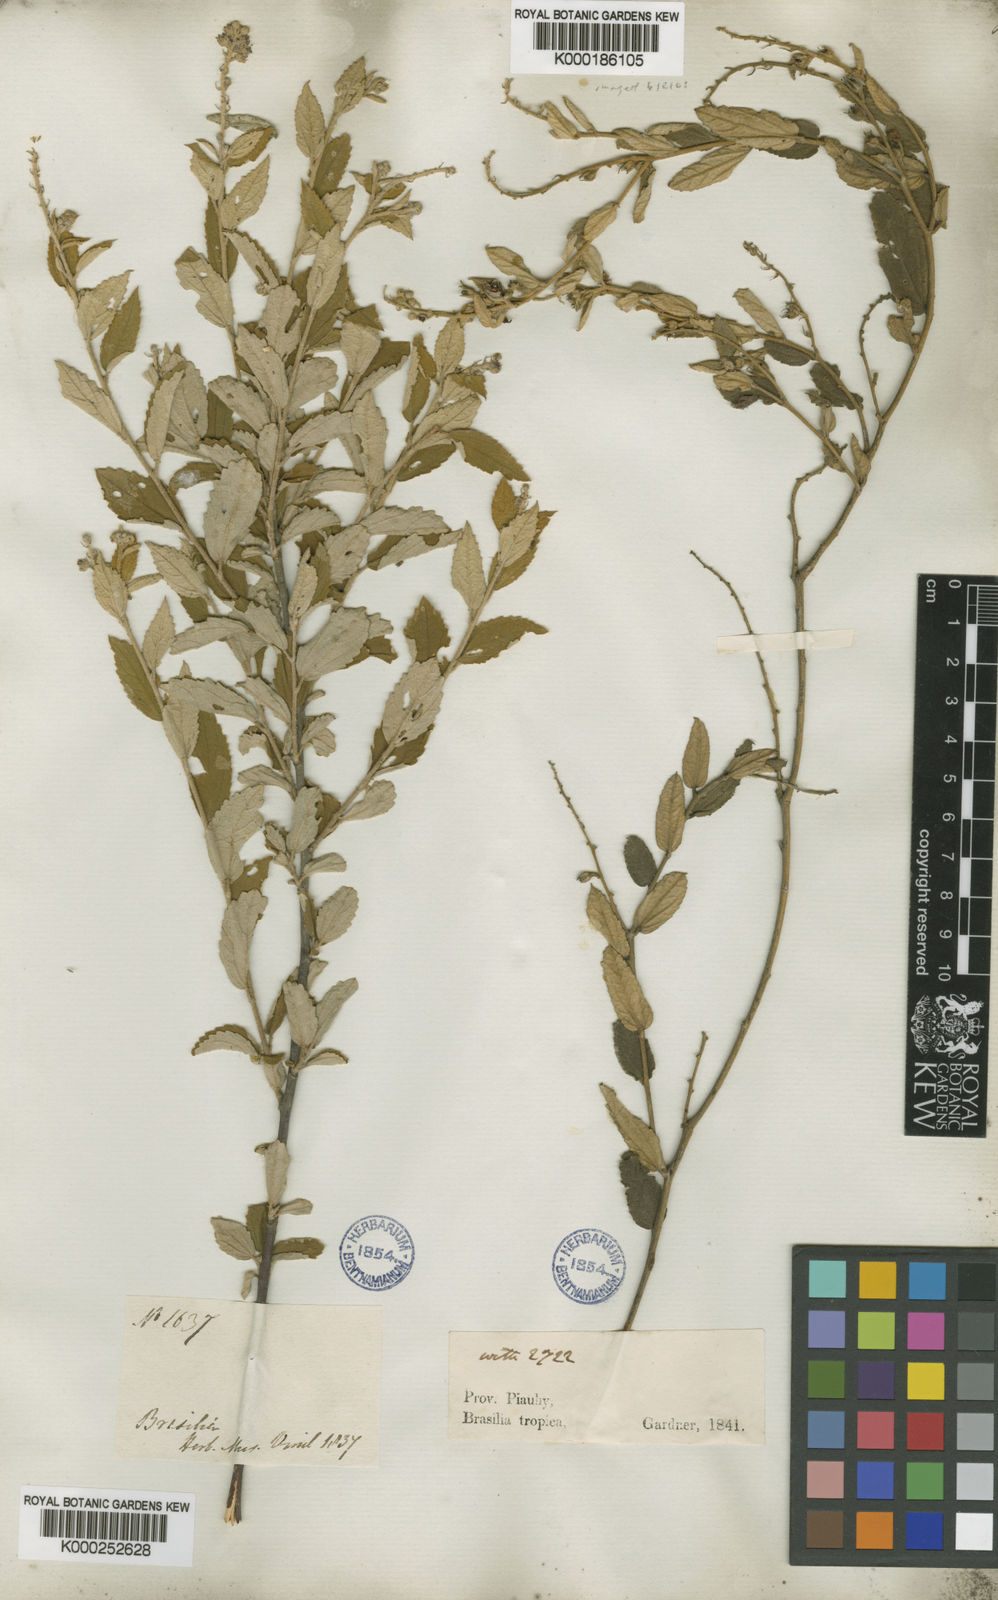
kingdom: Plantae
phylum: Tracheophyta
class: Magnoliopsida
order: Malpighiales
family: Euphorbiaceae
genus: Croton
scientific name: Croton
